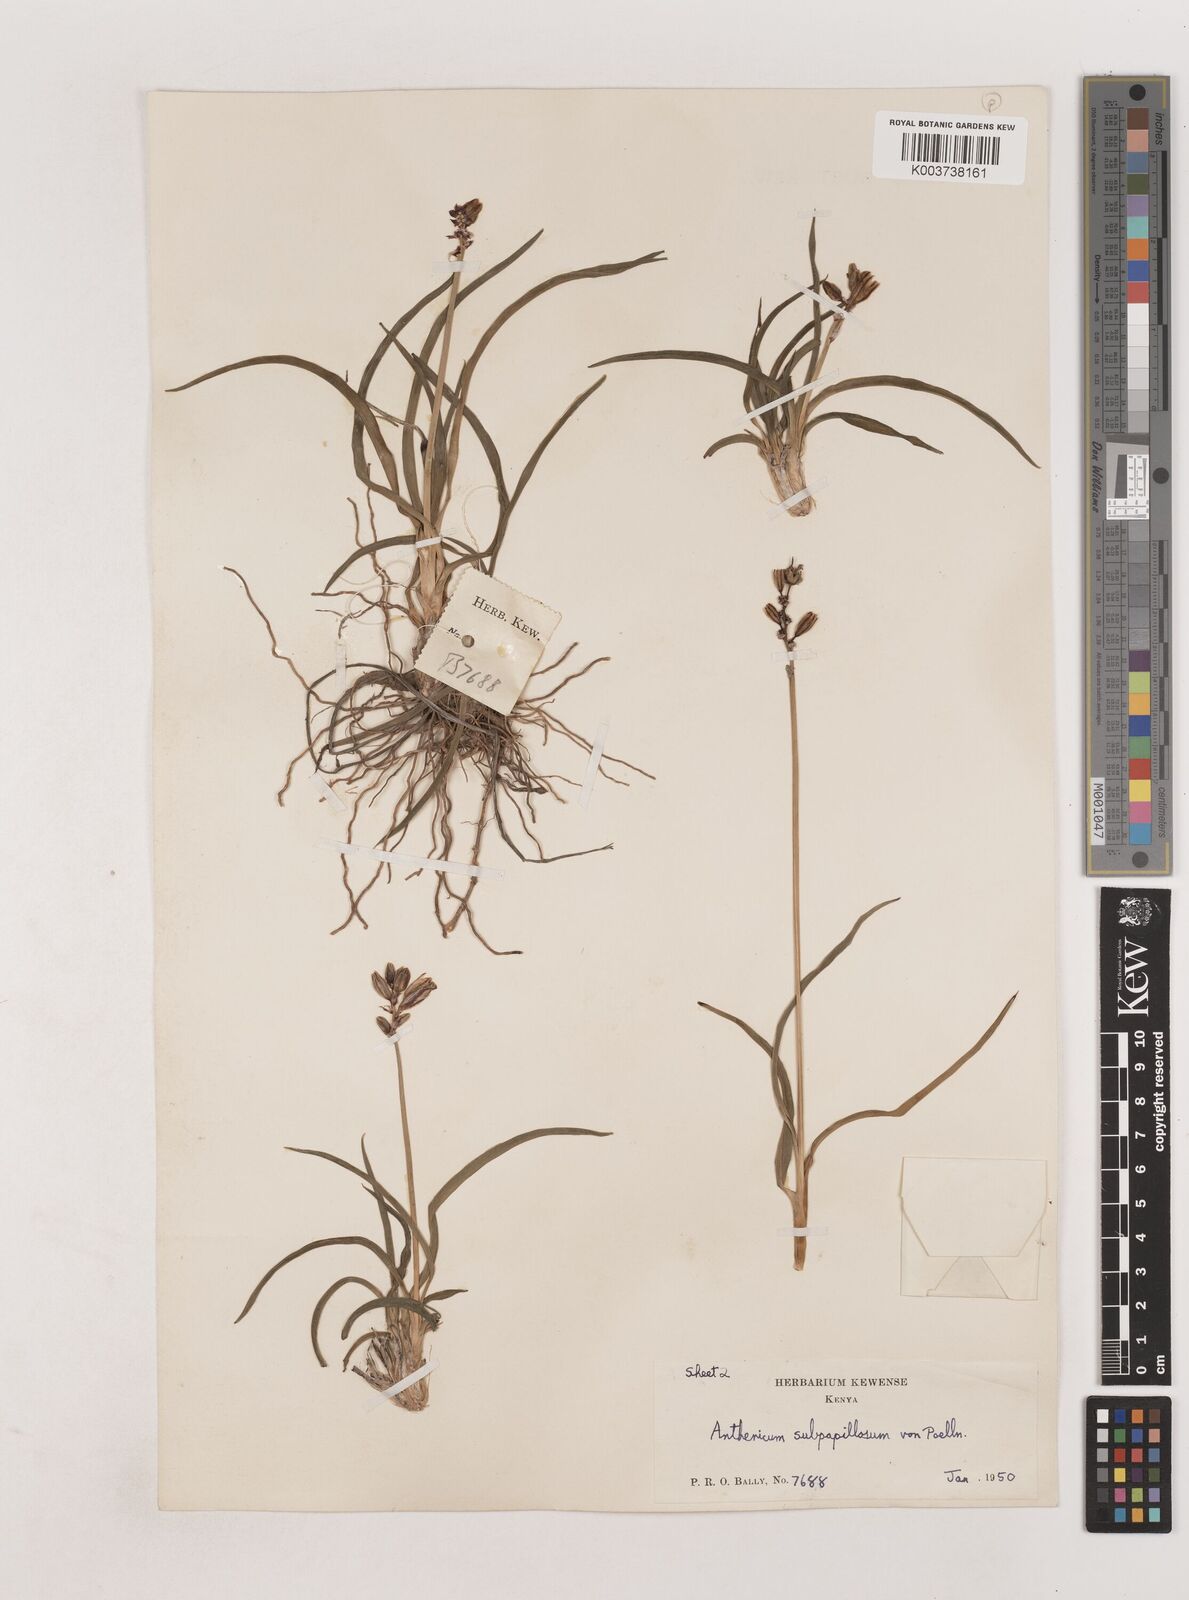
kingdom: Plantae
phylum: Tracheophyta
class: Liliopsida
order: Asparagales
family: Asparagaceae
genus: Chlorophytum
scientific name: Chlorophytum cameronii
